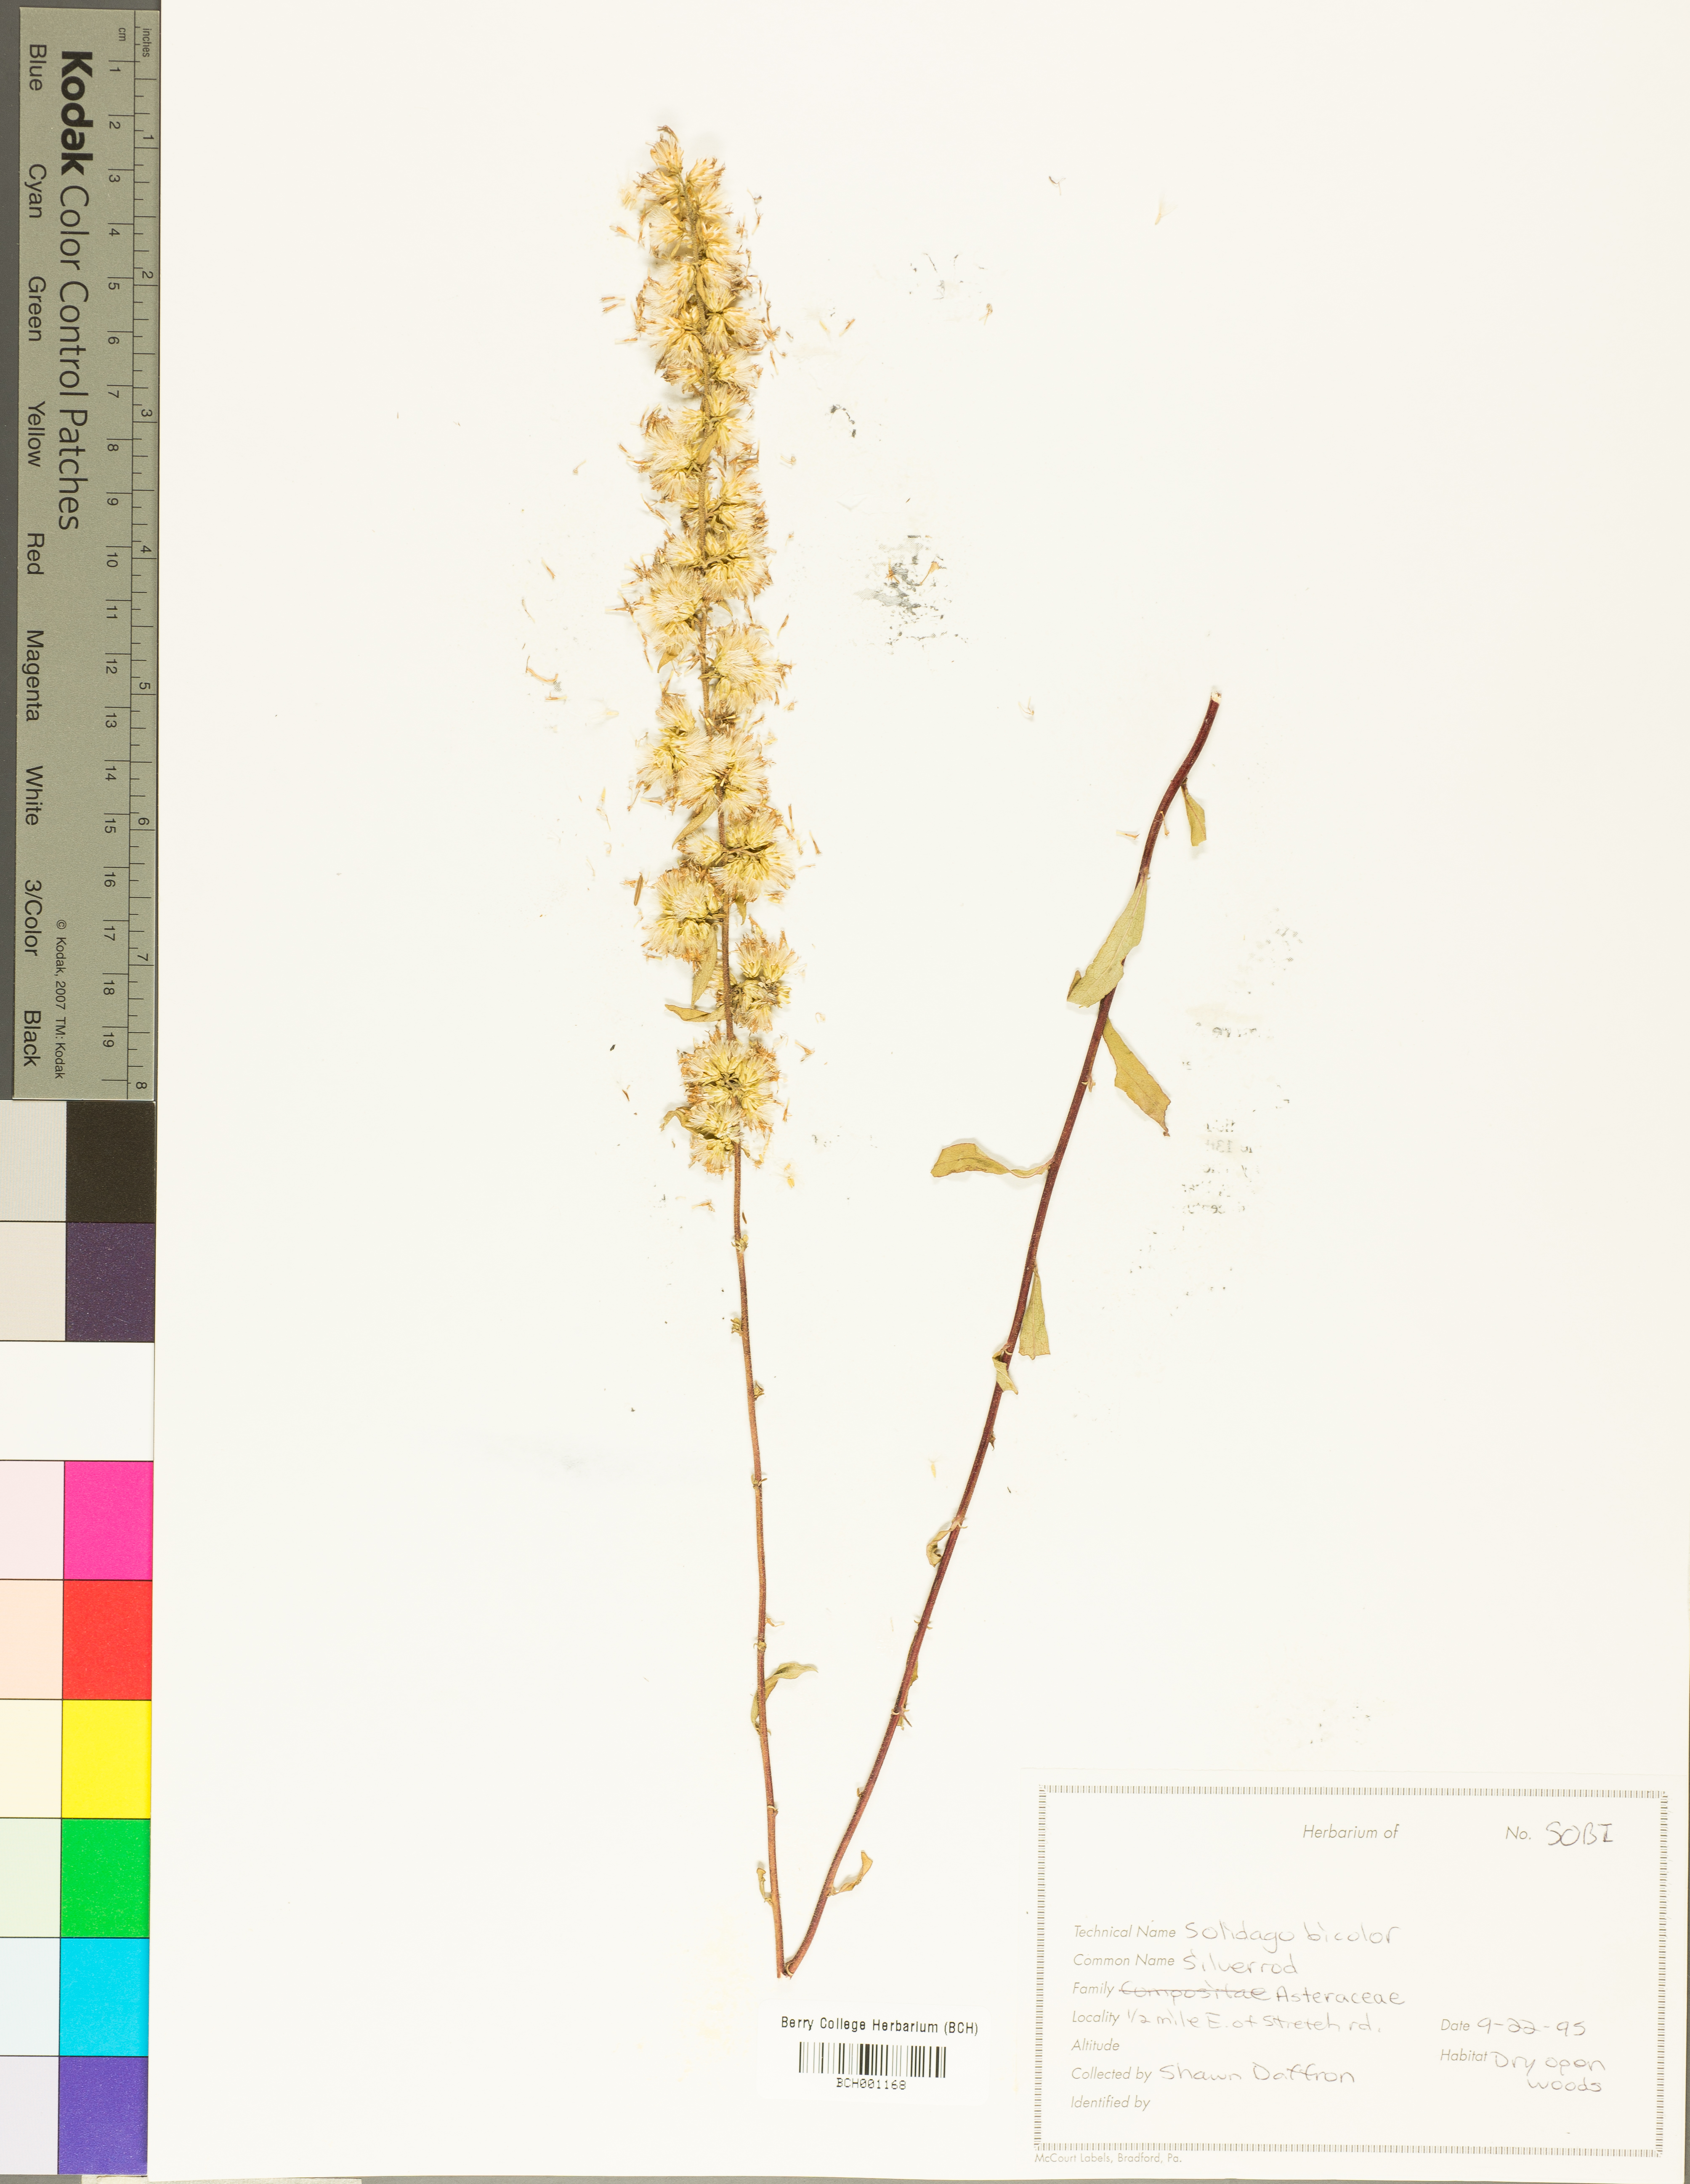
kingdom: Plantae
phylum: Tracheophyta
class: Magnoliopsida
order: Asterales
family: Asteraceae
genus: Solidago
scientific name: Solidago bicolor
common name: Silverrod
